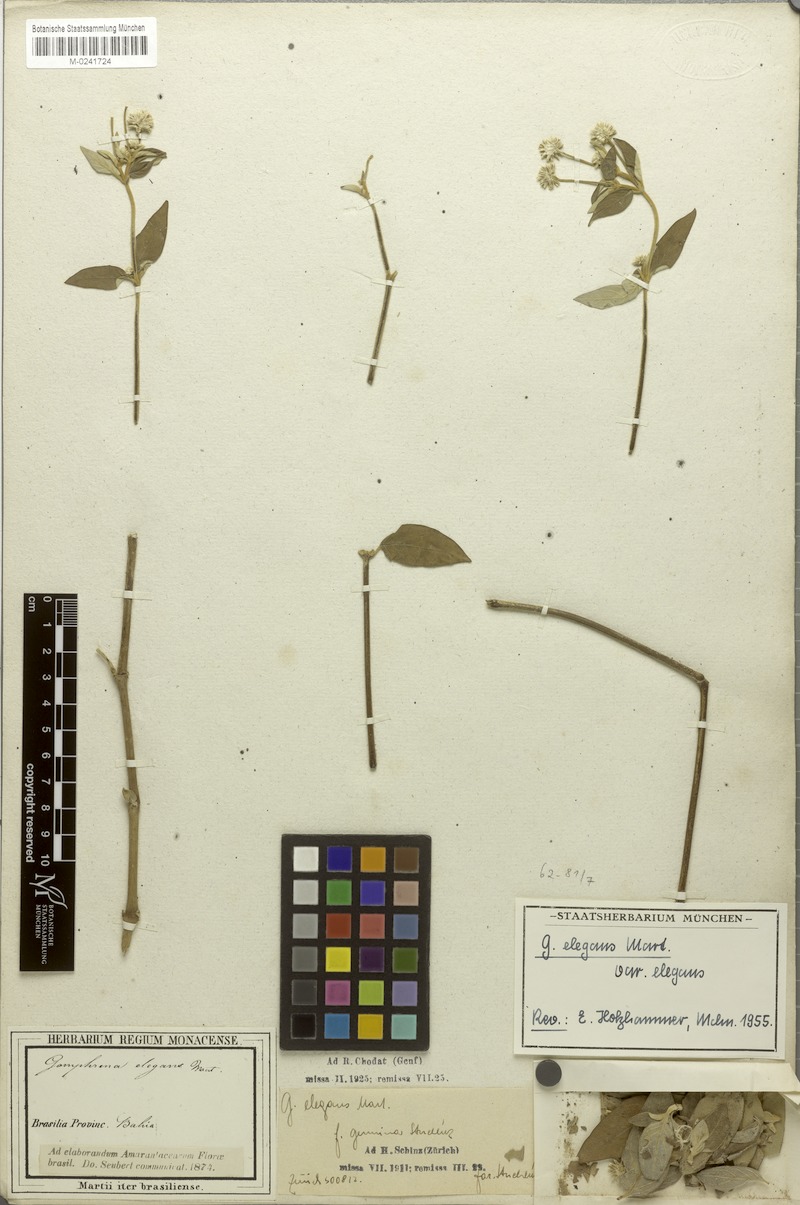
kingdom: Plantae
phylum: Tracheophyta
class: Magnoliopsida
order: Caryophyllales
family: Amaranthaceae
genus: Gomphrena
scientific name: Gomphrena elegans
